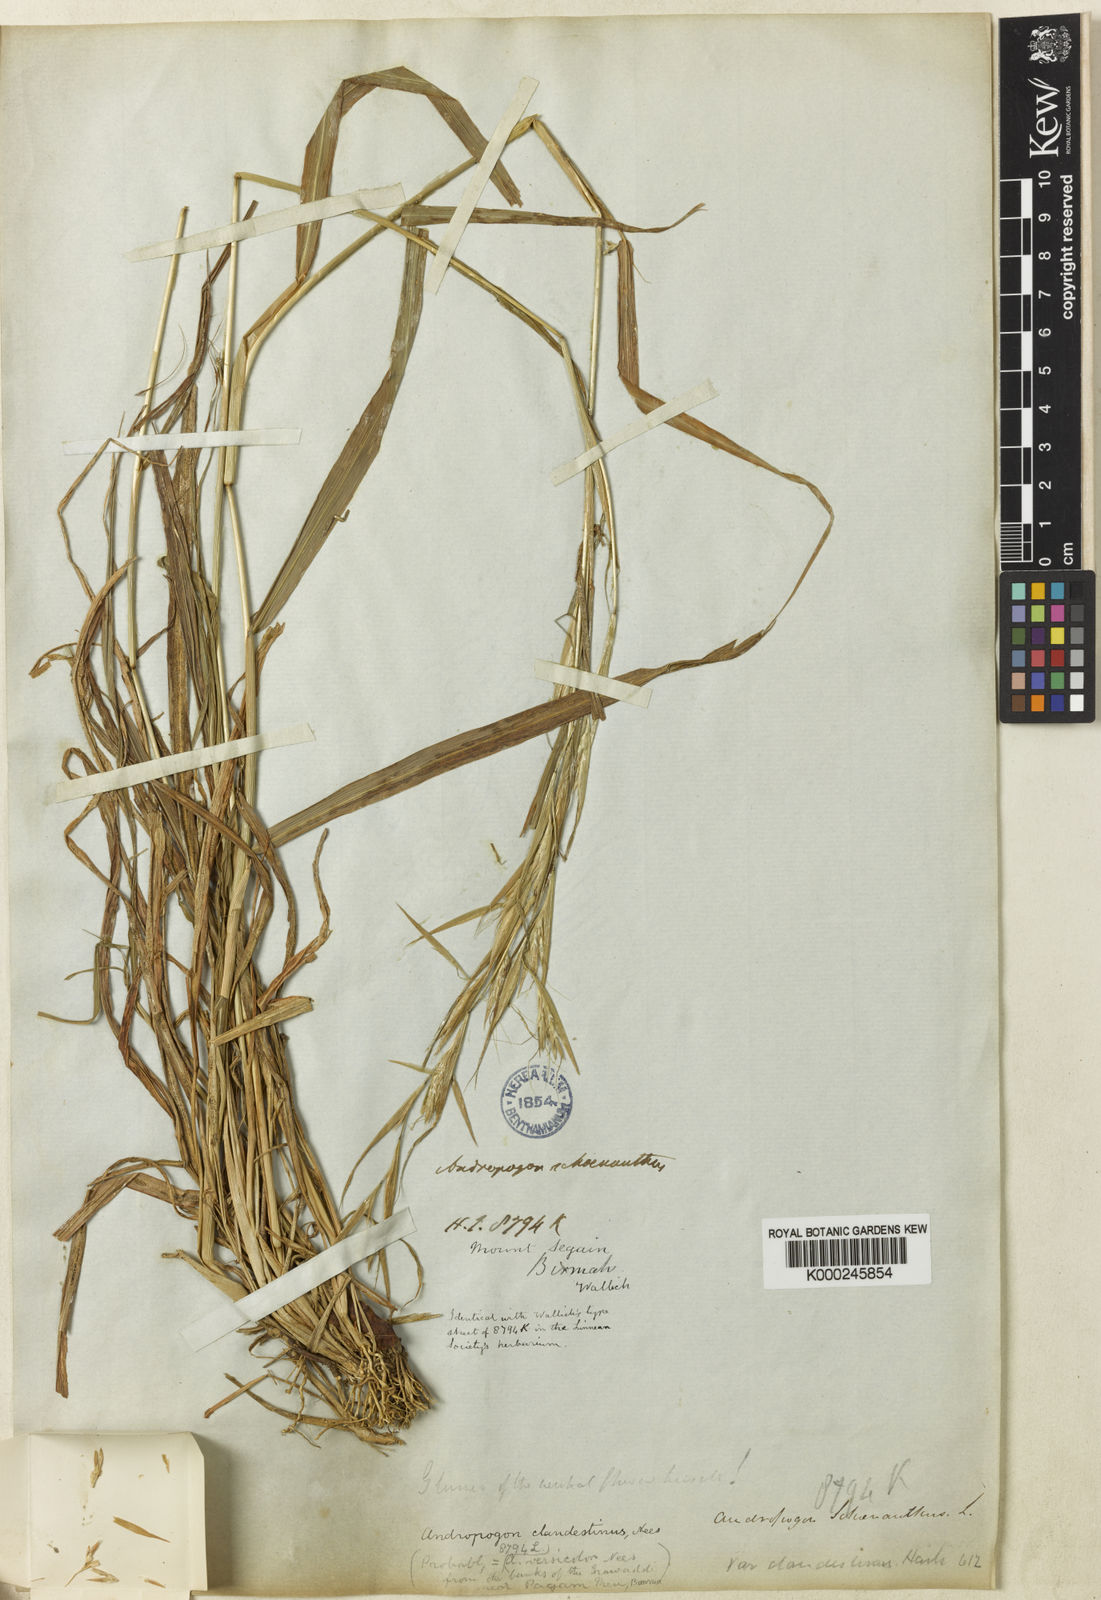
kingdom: Plantae
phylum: Tracheophyta
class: Liliopsida
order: Poales
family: Poaceae
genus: Cymbopogon
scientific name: Cymbopogon clandestinus
